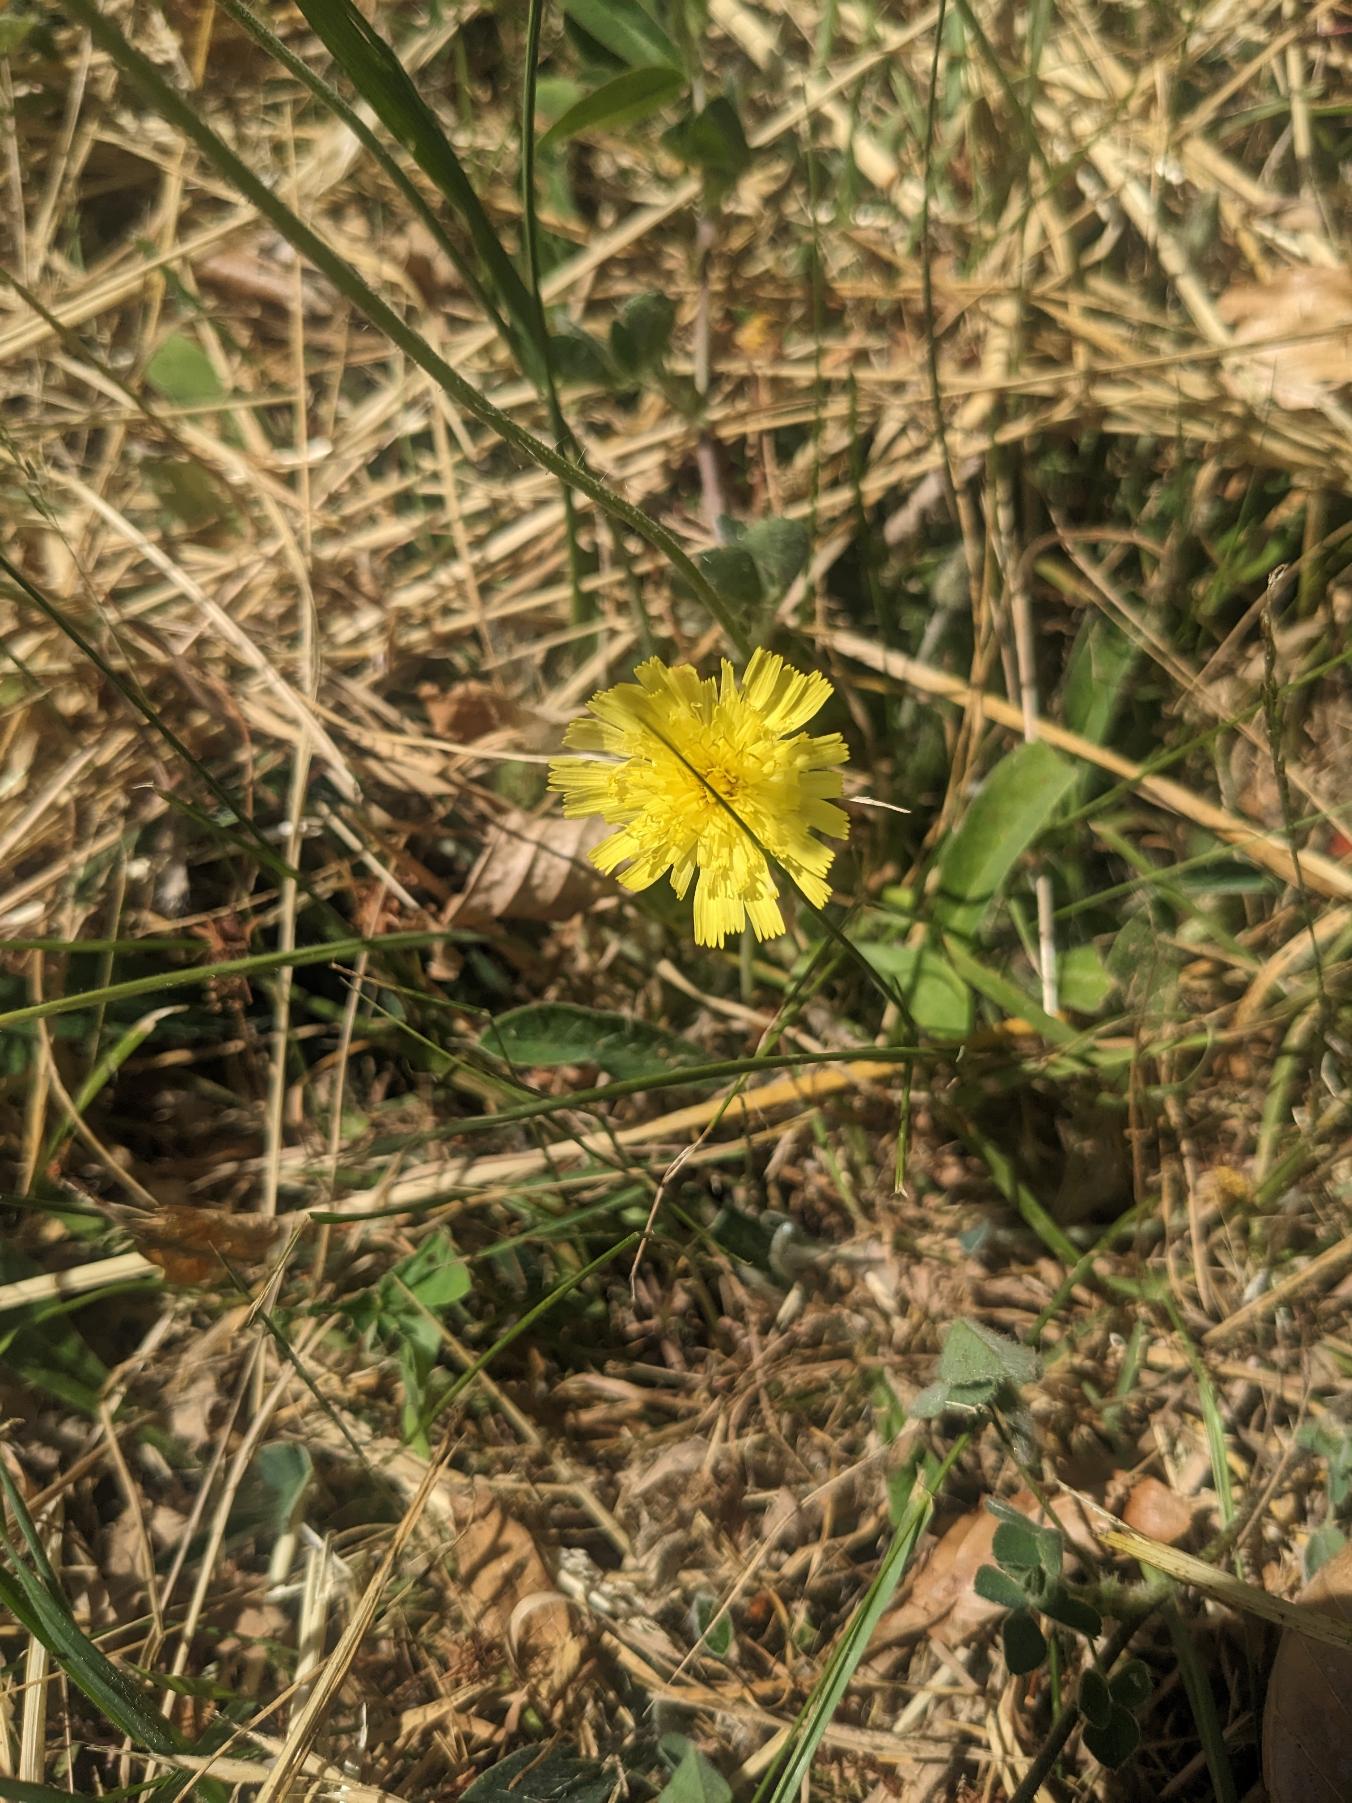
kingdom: Plantae
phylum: Tracheophyta
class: Magnoliopsida
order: Asterales
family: Asteraceae
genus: Pilosella
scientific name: Pilosella officinarum
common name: Håret høgeurt
